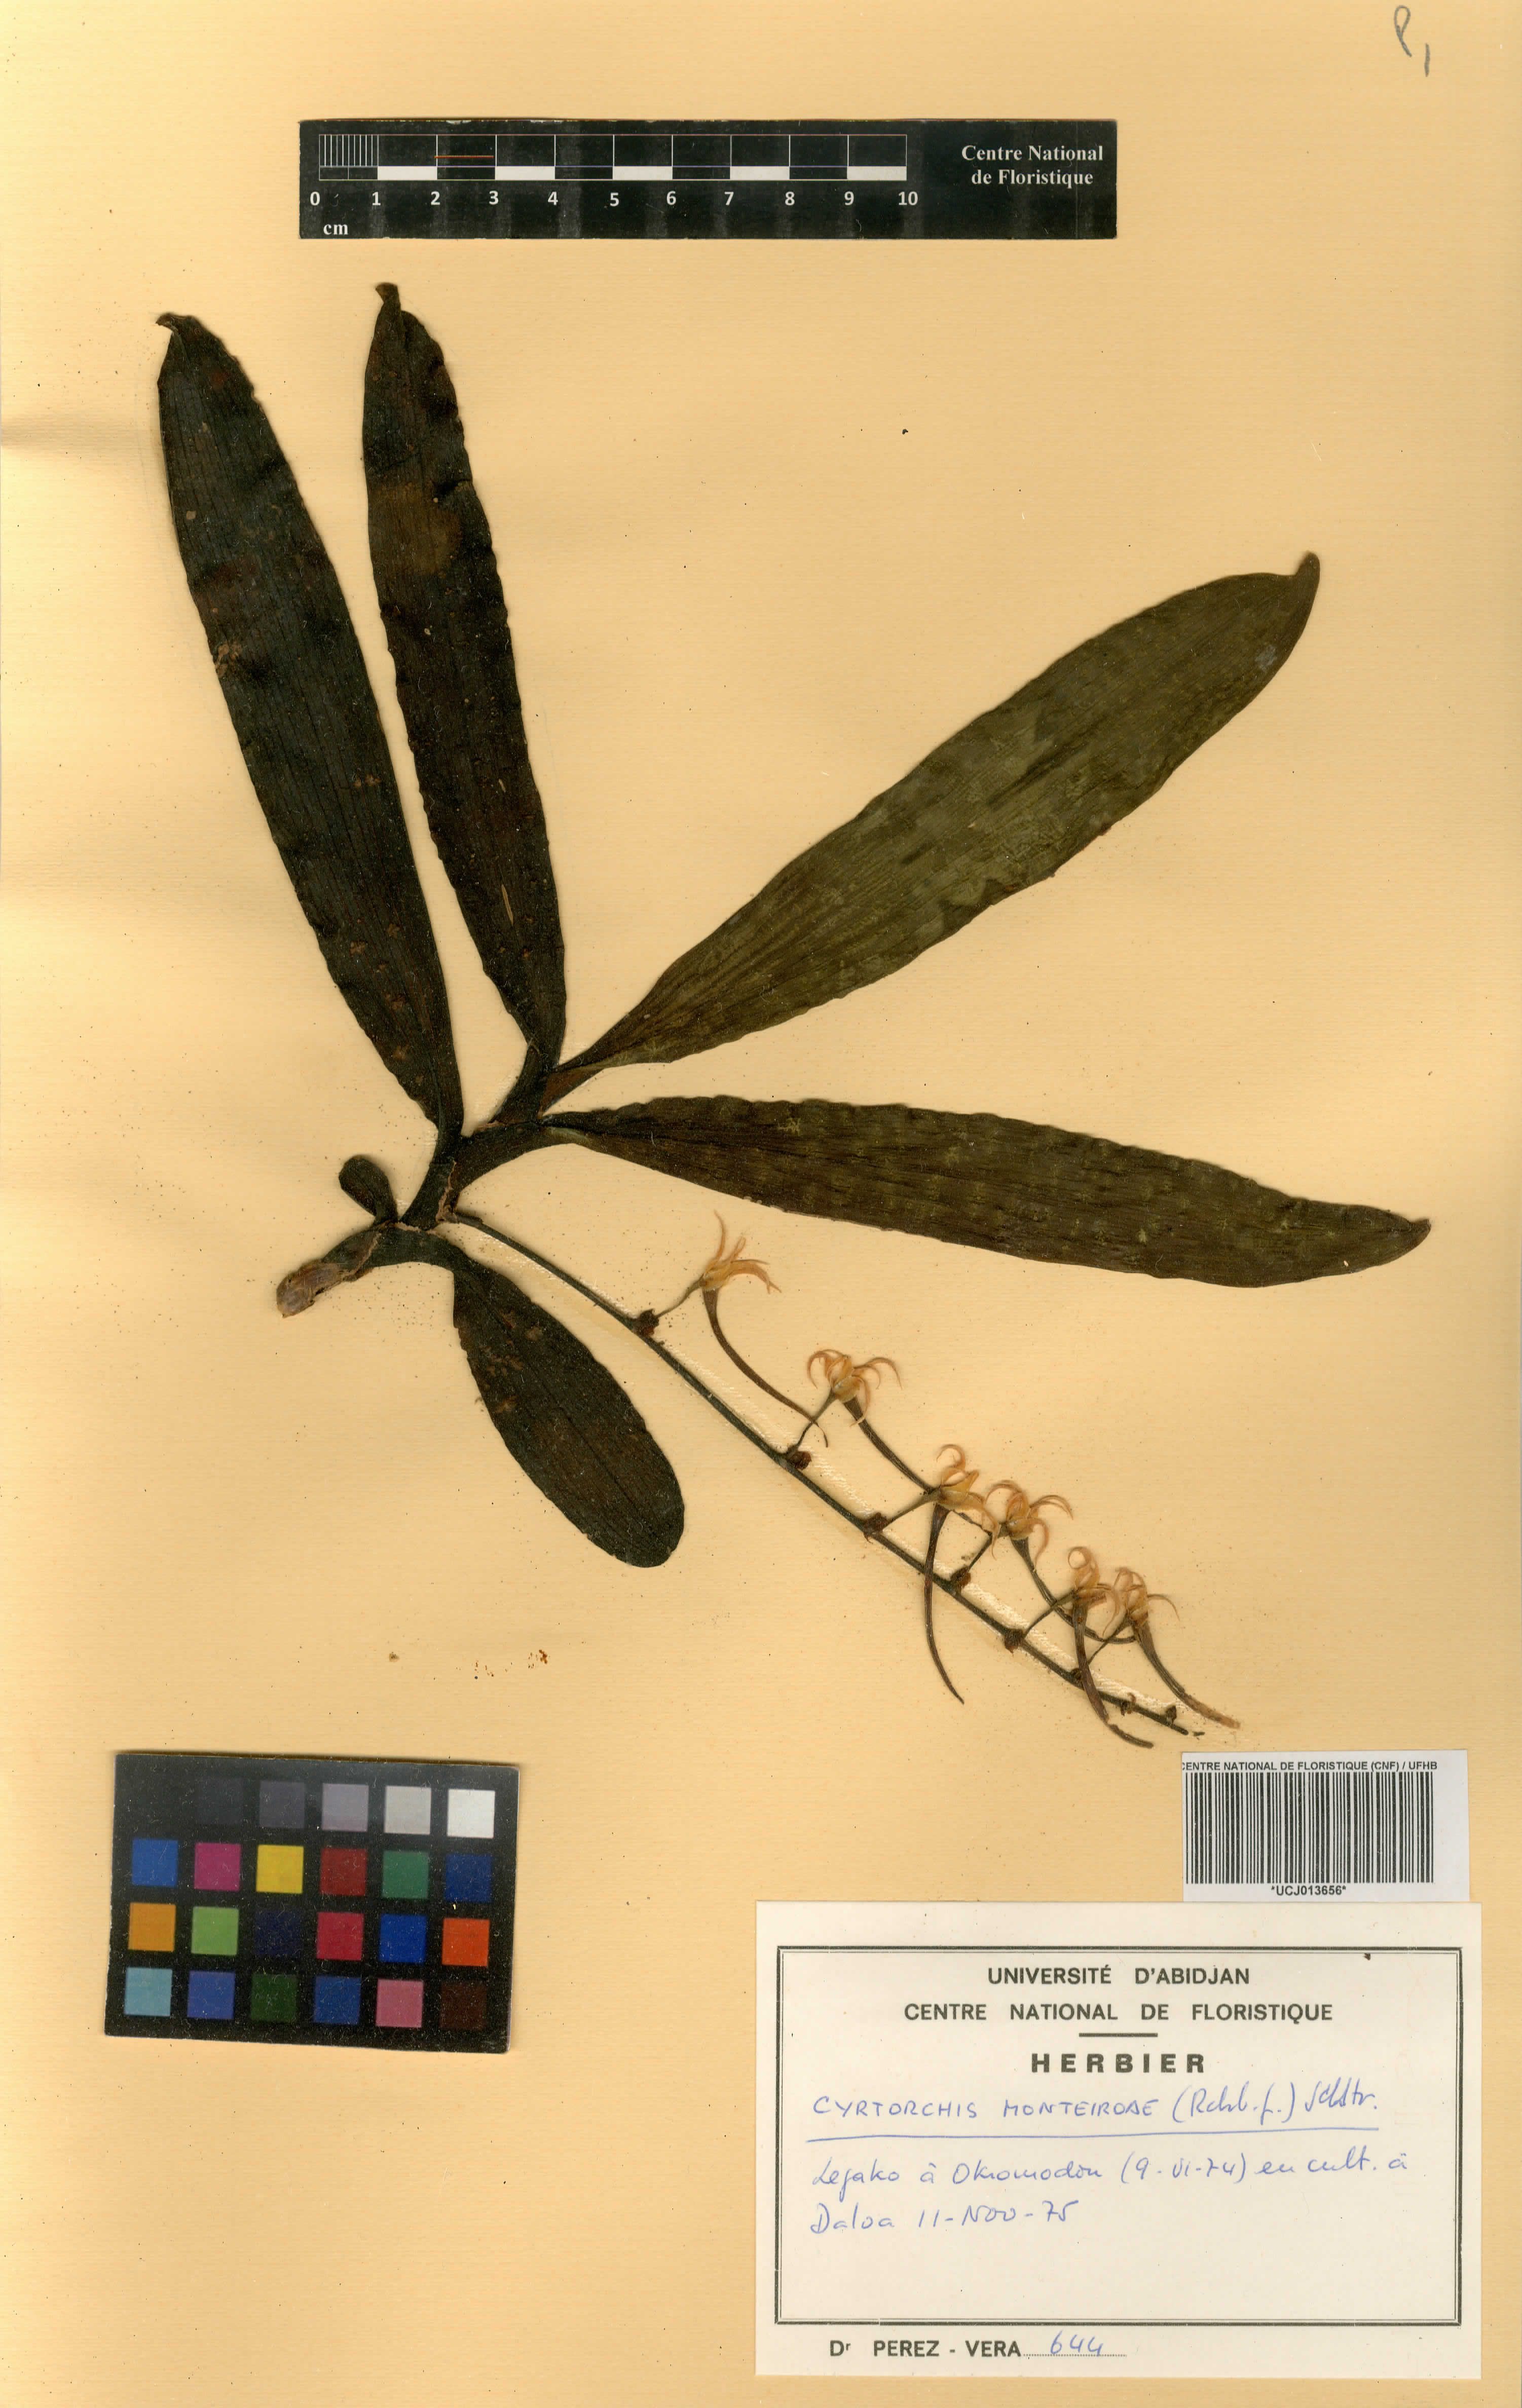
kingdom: Plantae
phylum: Tracheophyta
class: Liliopsida
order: Asparagales
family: Orchidaceae
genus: Cyrtorchis
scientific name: Cyrtorchis monteiroae
